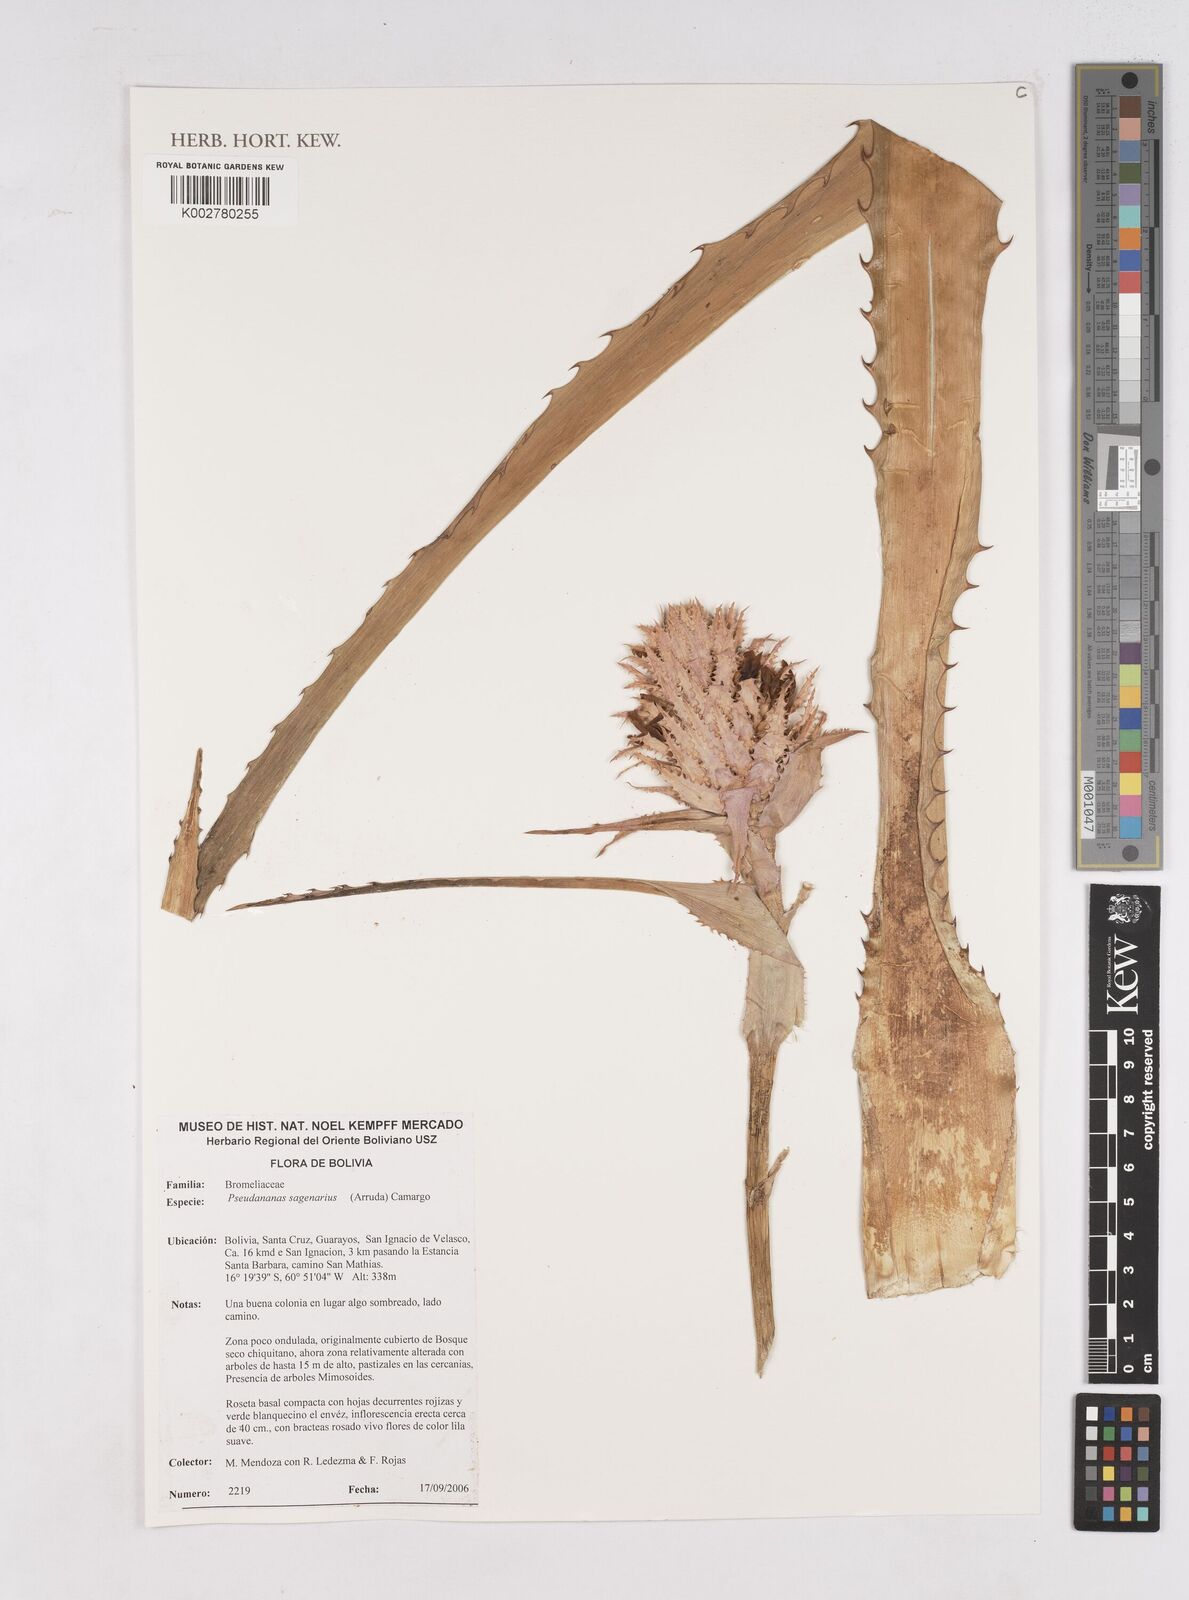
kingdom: Plantae
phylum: Tracheophyta
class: Liliopsida
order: Poales
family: Bromeliaceae
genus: Ananas
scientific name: Ananas comosus
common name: Pineapple
